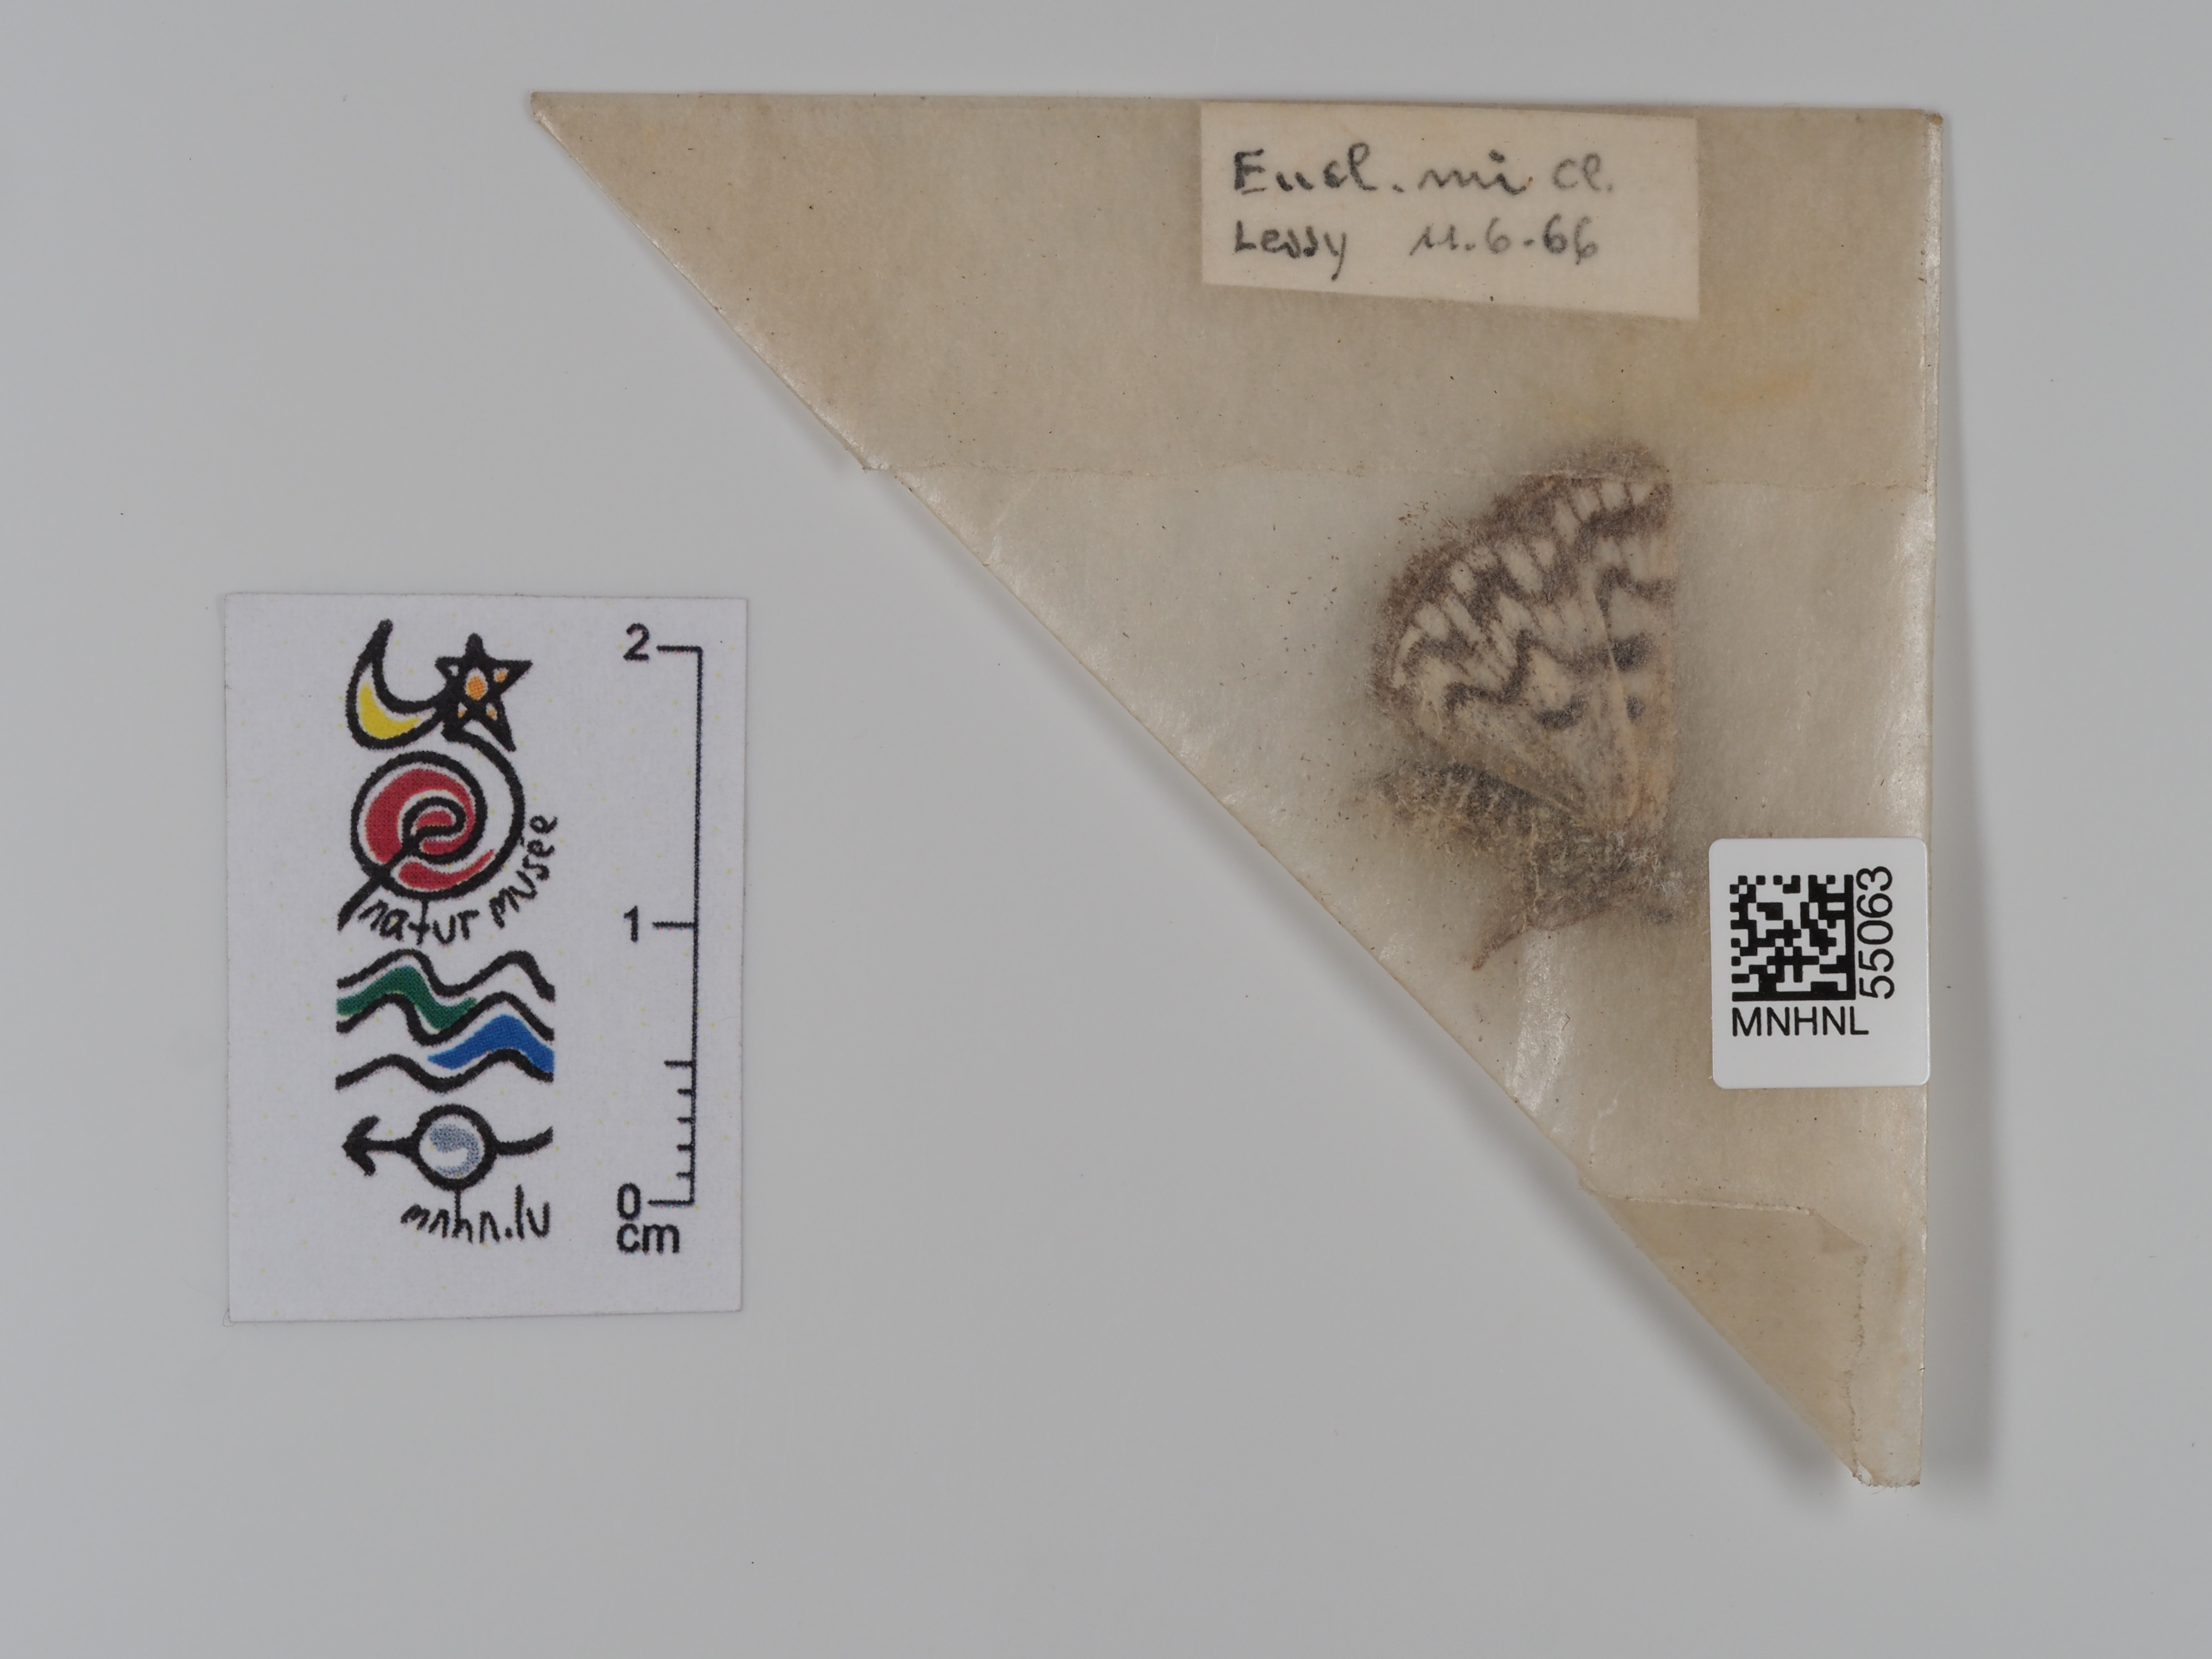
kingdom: Animalia
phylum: Arthropoda
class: Insecta
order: Lepidoptera
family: Erebidae
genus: Euclidia
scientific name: Euclidia mi
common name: Mother shipton
